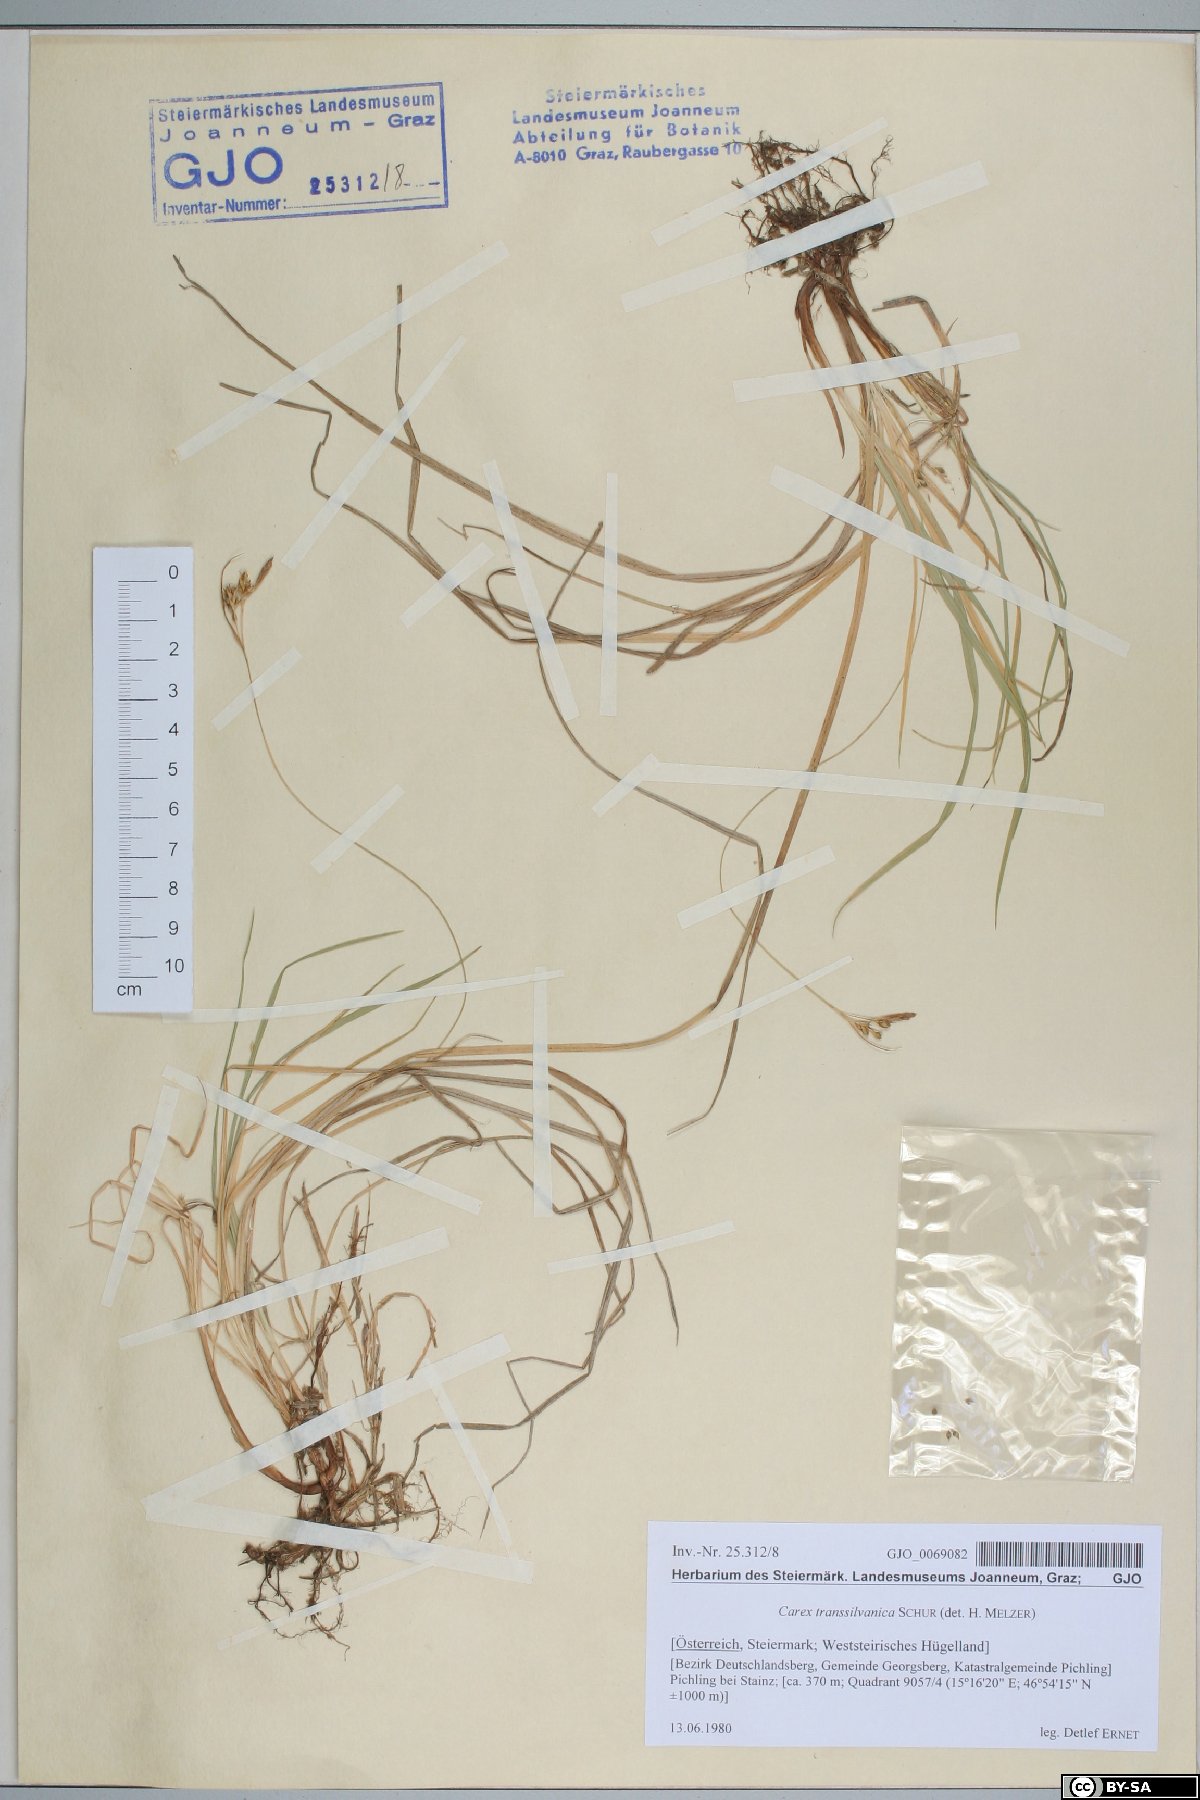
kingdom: Plantae
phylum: Tracheophyta
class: Liliopsida
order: Poales
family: Cyperaceae
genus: Carex
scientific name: Carex depressa
